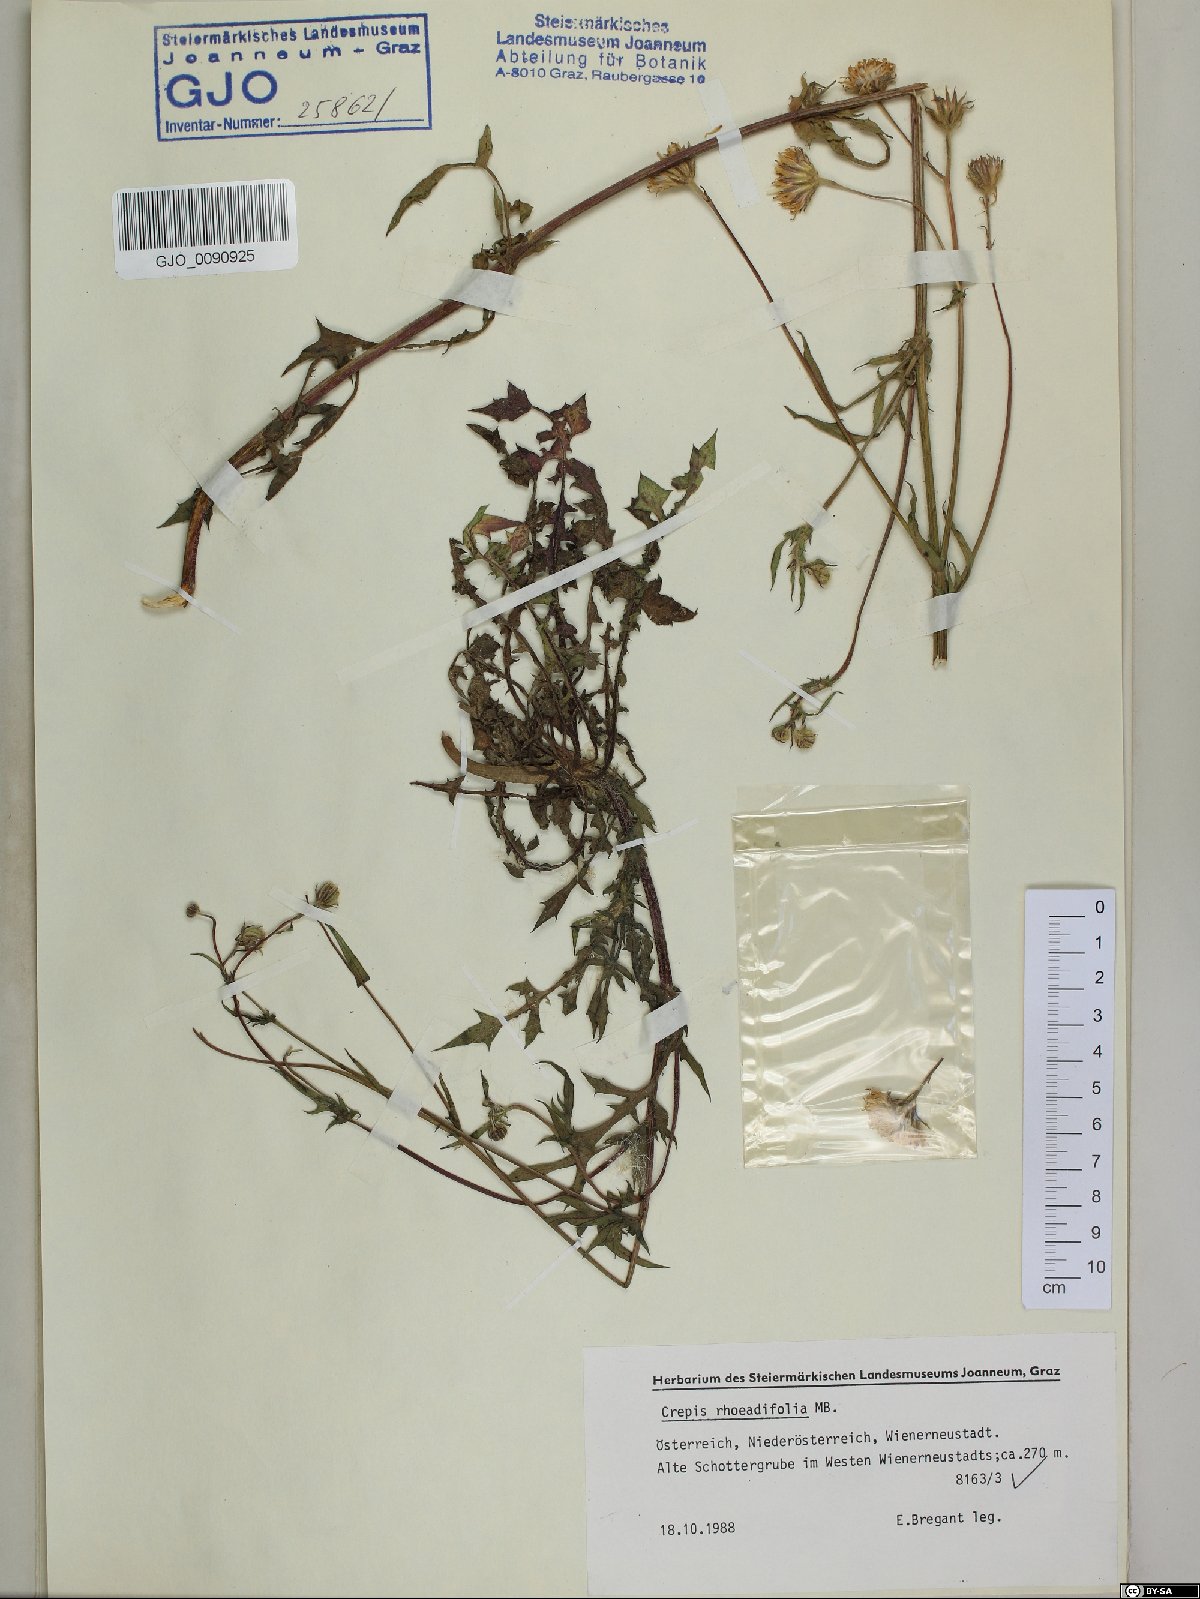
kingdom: Plantae
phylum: Tracheophyta
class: Magnoliopsida
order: Asterales
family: Asteraceae
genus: Crepis
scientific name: Crepis foetida
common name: Stinking hawk's-beard
